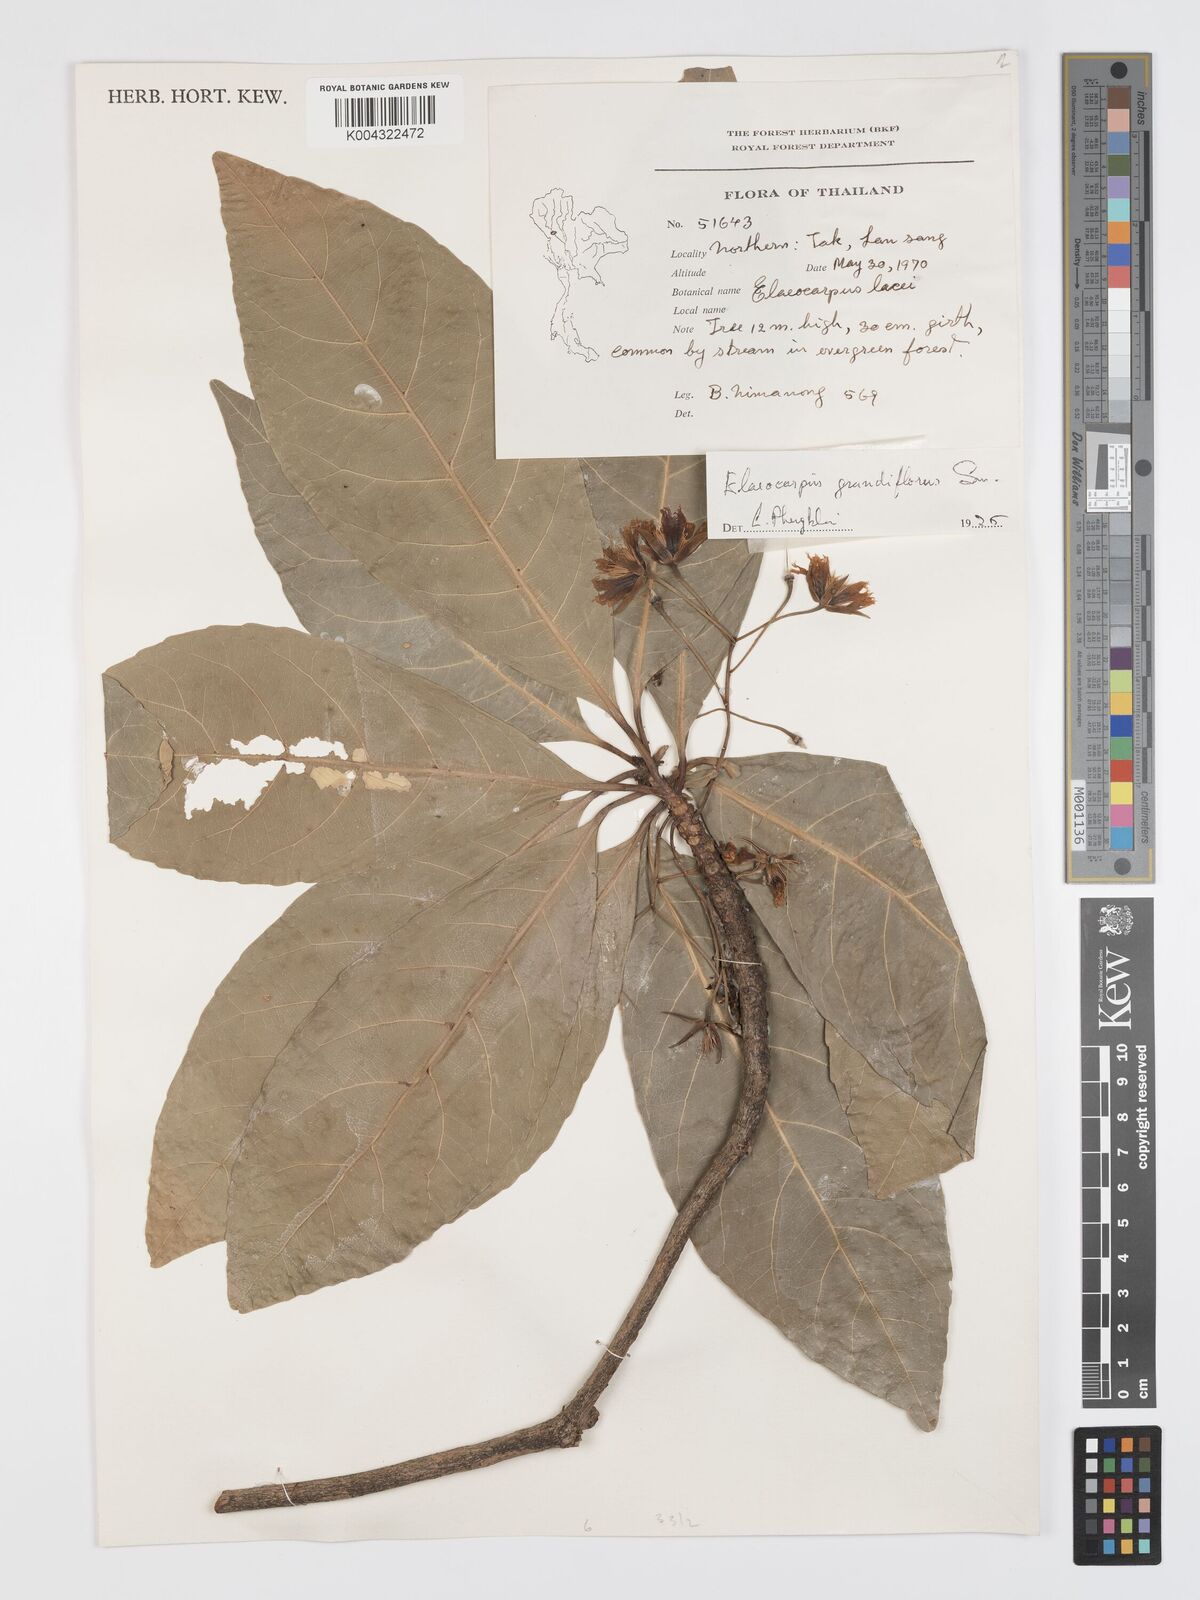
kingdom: Plantae
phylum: Tracheophyta
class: Magnoliopsida
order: Oxalidales
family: Elaeocarpaceae
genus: Elaeocarpus
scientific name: Elaeocarpus grandiflorus
